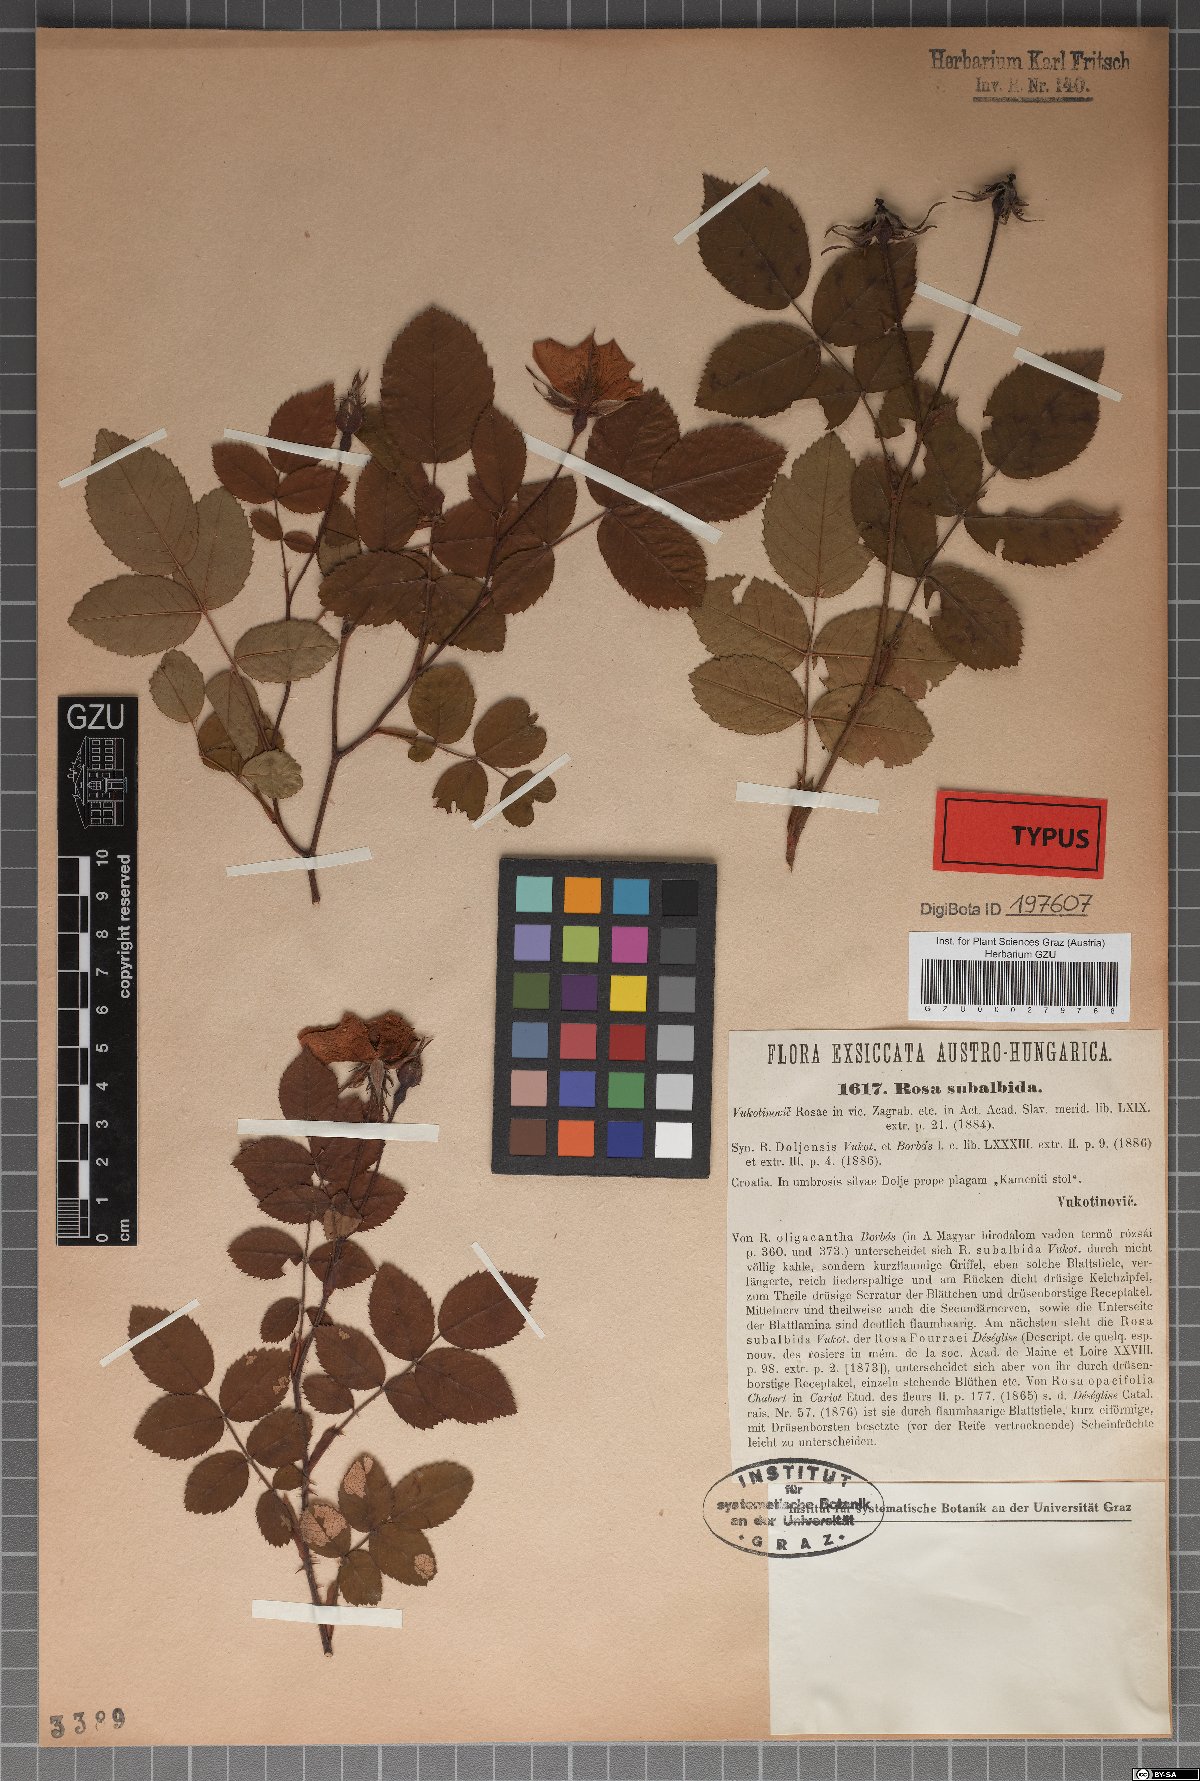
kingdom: Plantae
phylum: Tracheophyta
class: Magnoliopsida
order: Rosales
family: Rosaceae
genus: Rosa
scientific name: Rosa subalbida
